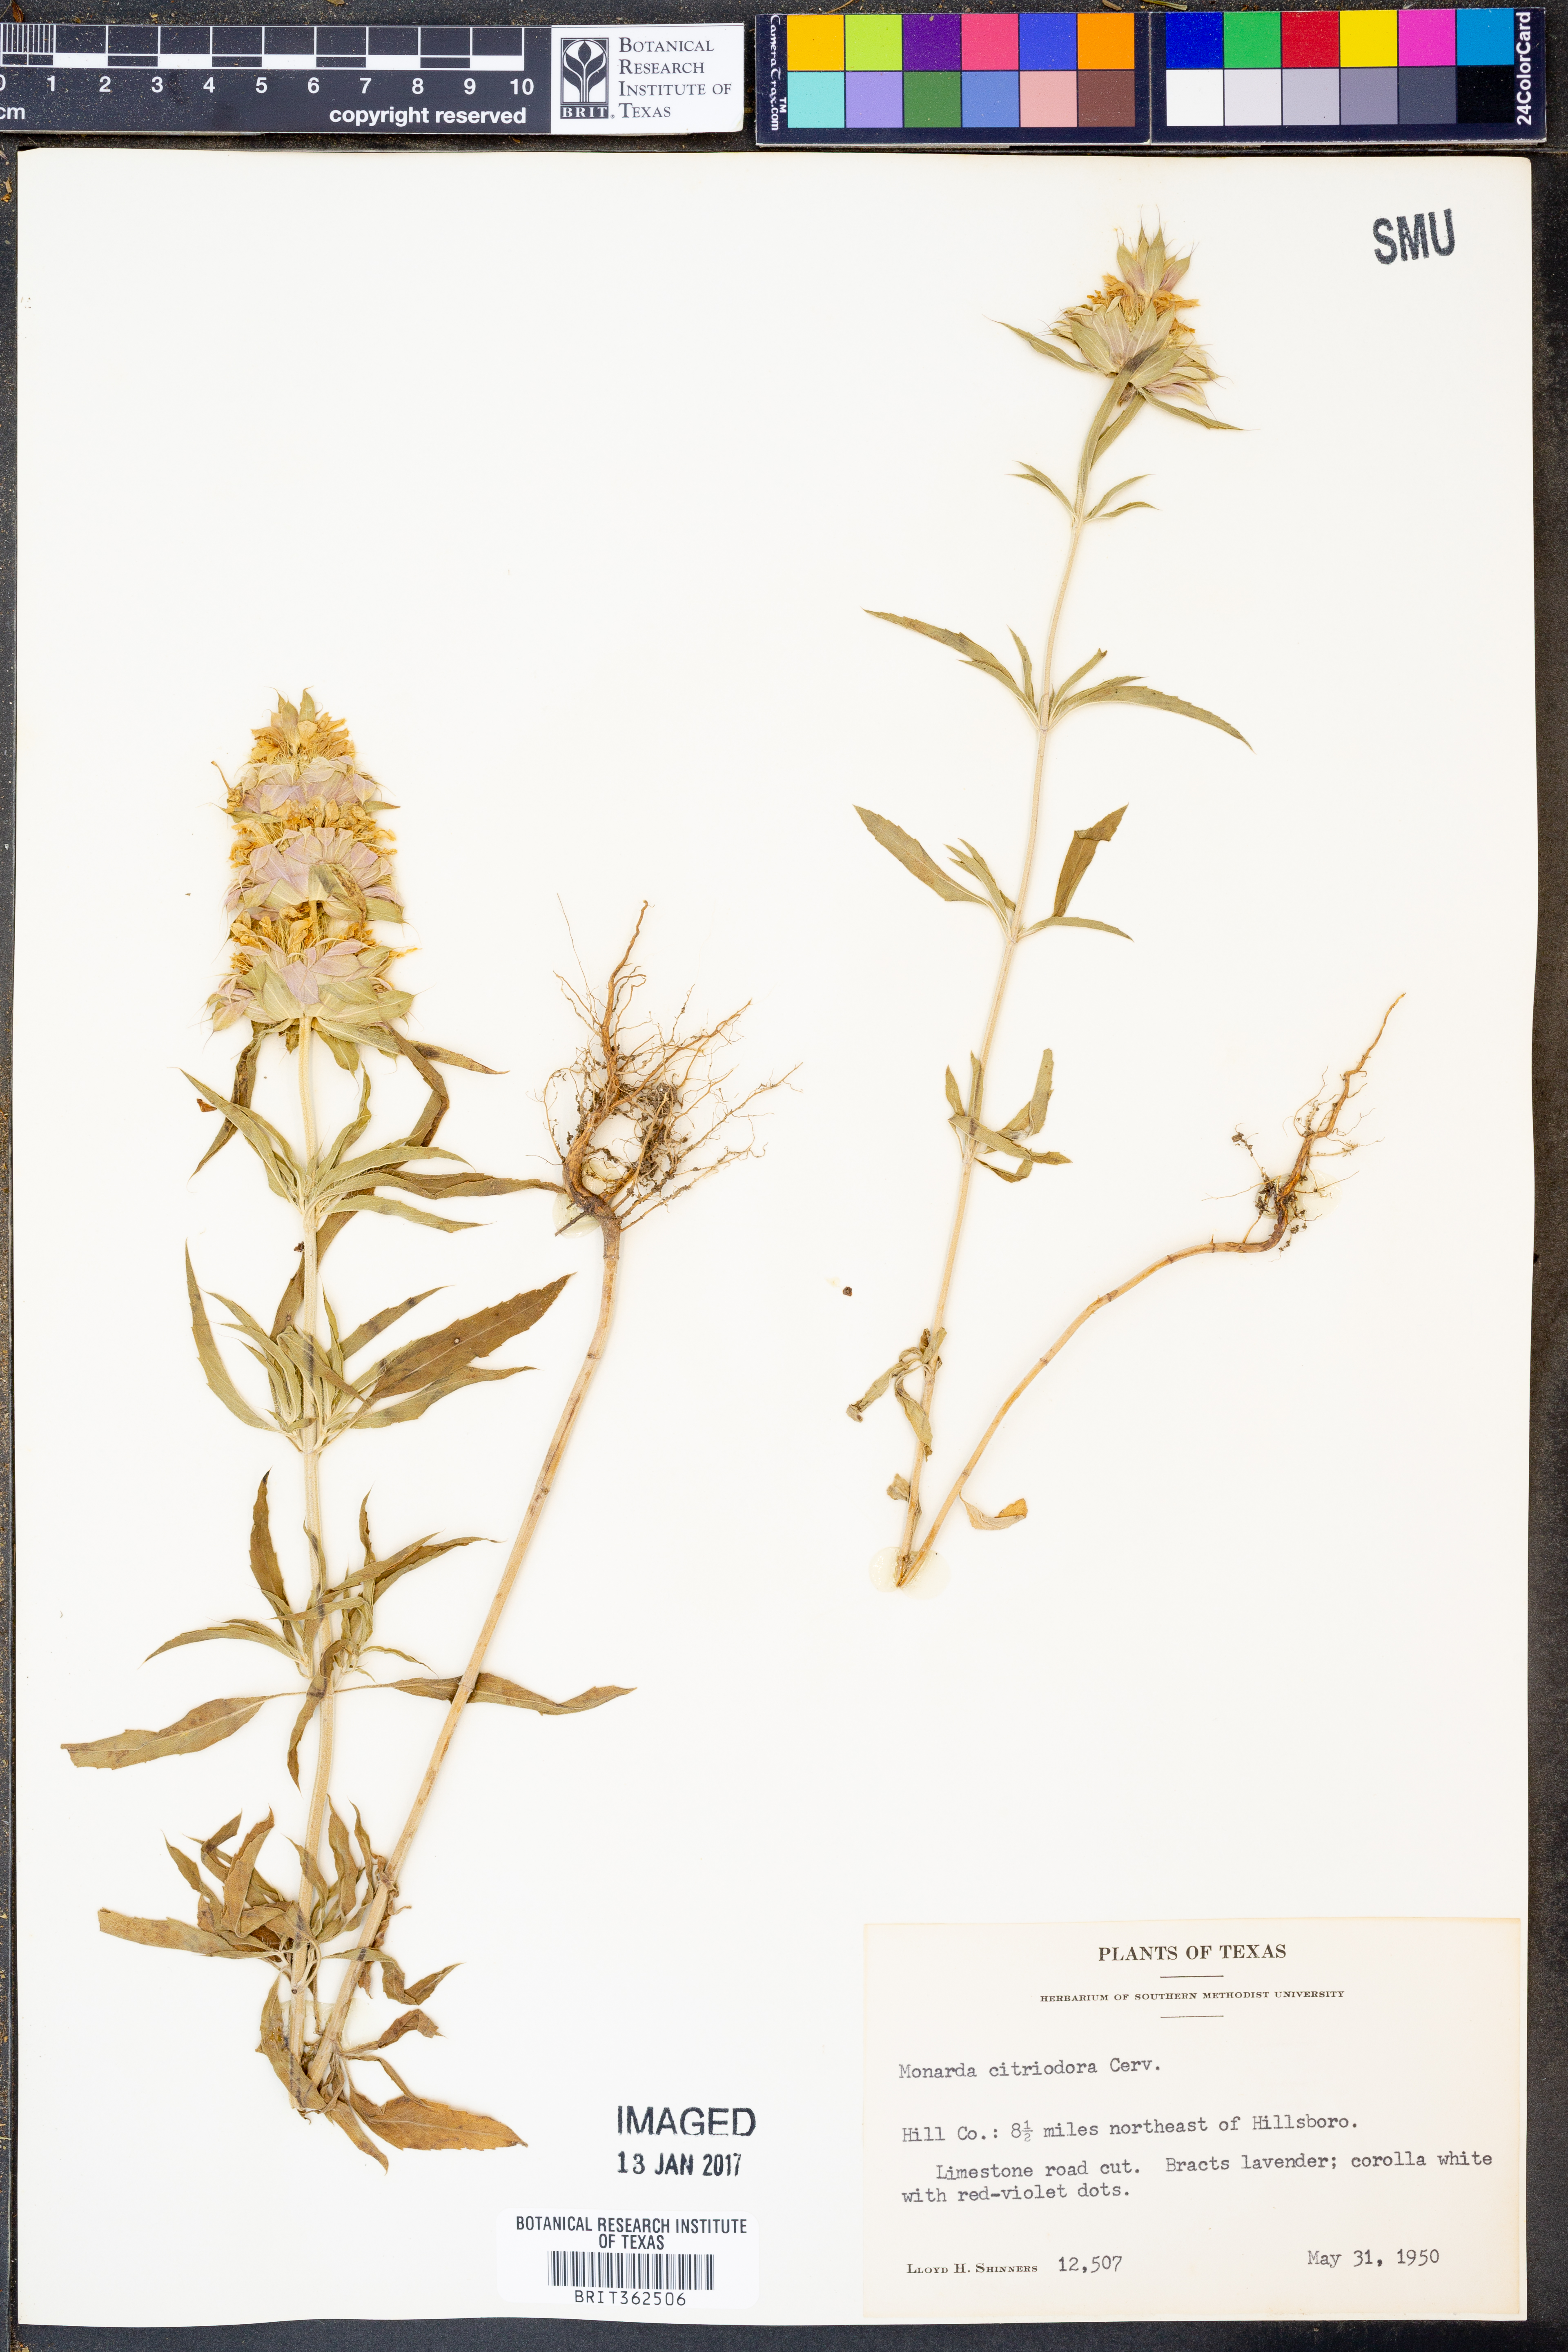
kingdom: Plantae
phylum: Tracheophyta
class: Magnoliopsida
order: Lamiales
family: Lamiaceae
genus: Monarda
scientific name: Monarda citriodora
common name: Lemon beebalm
